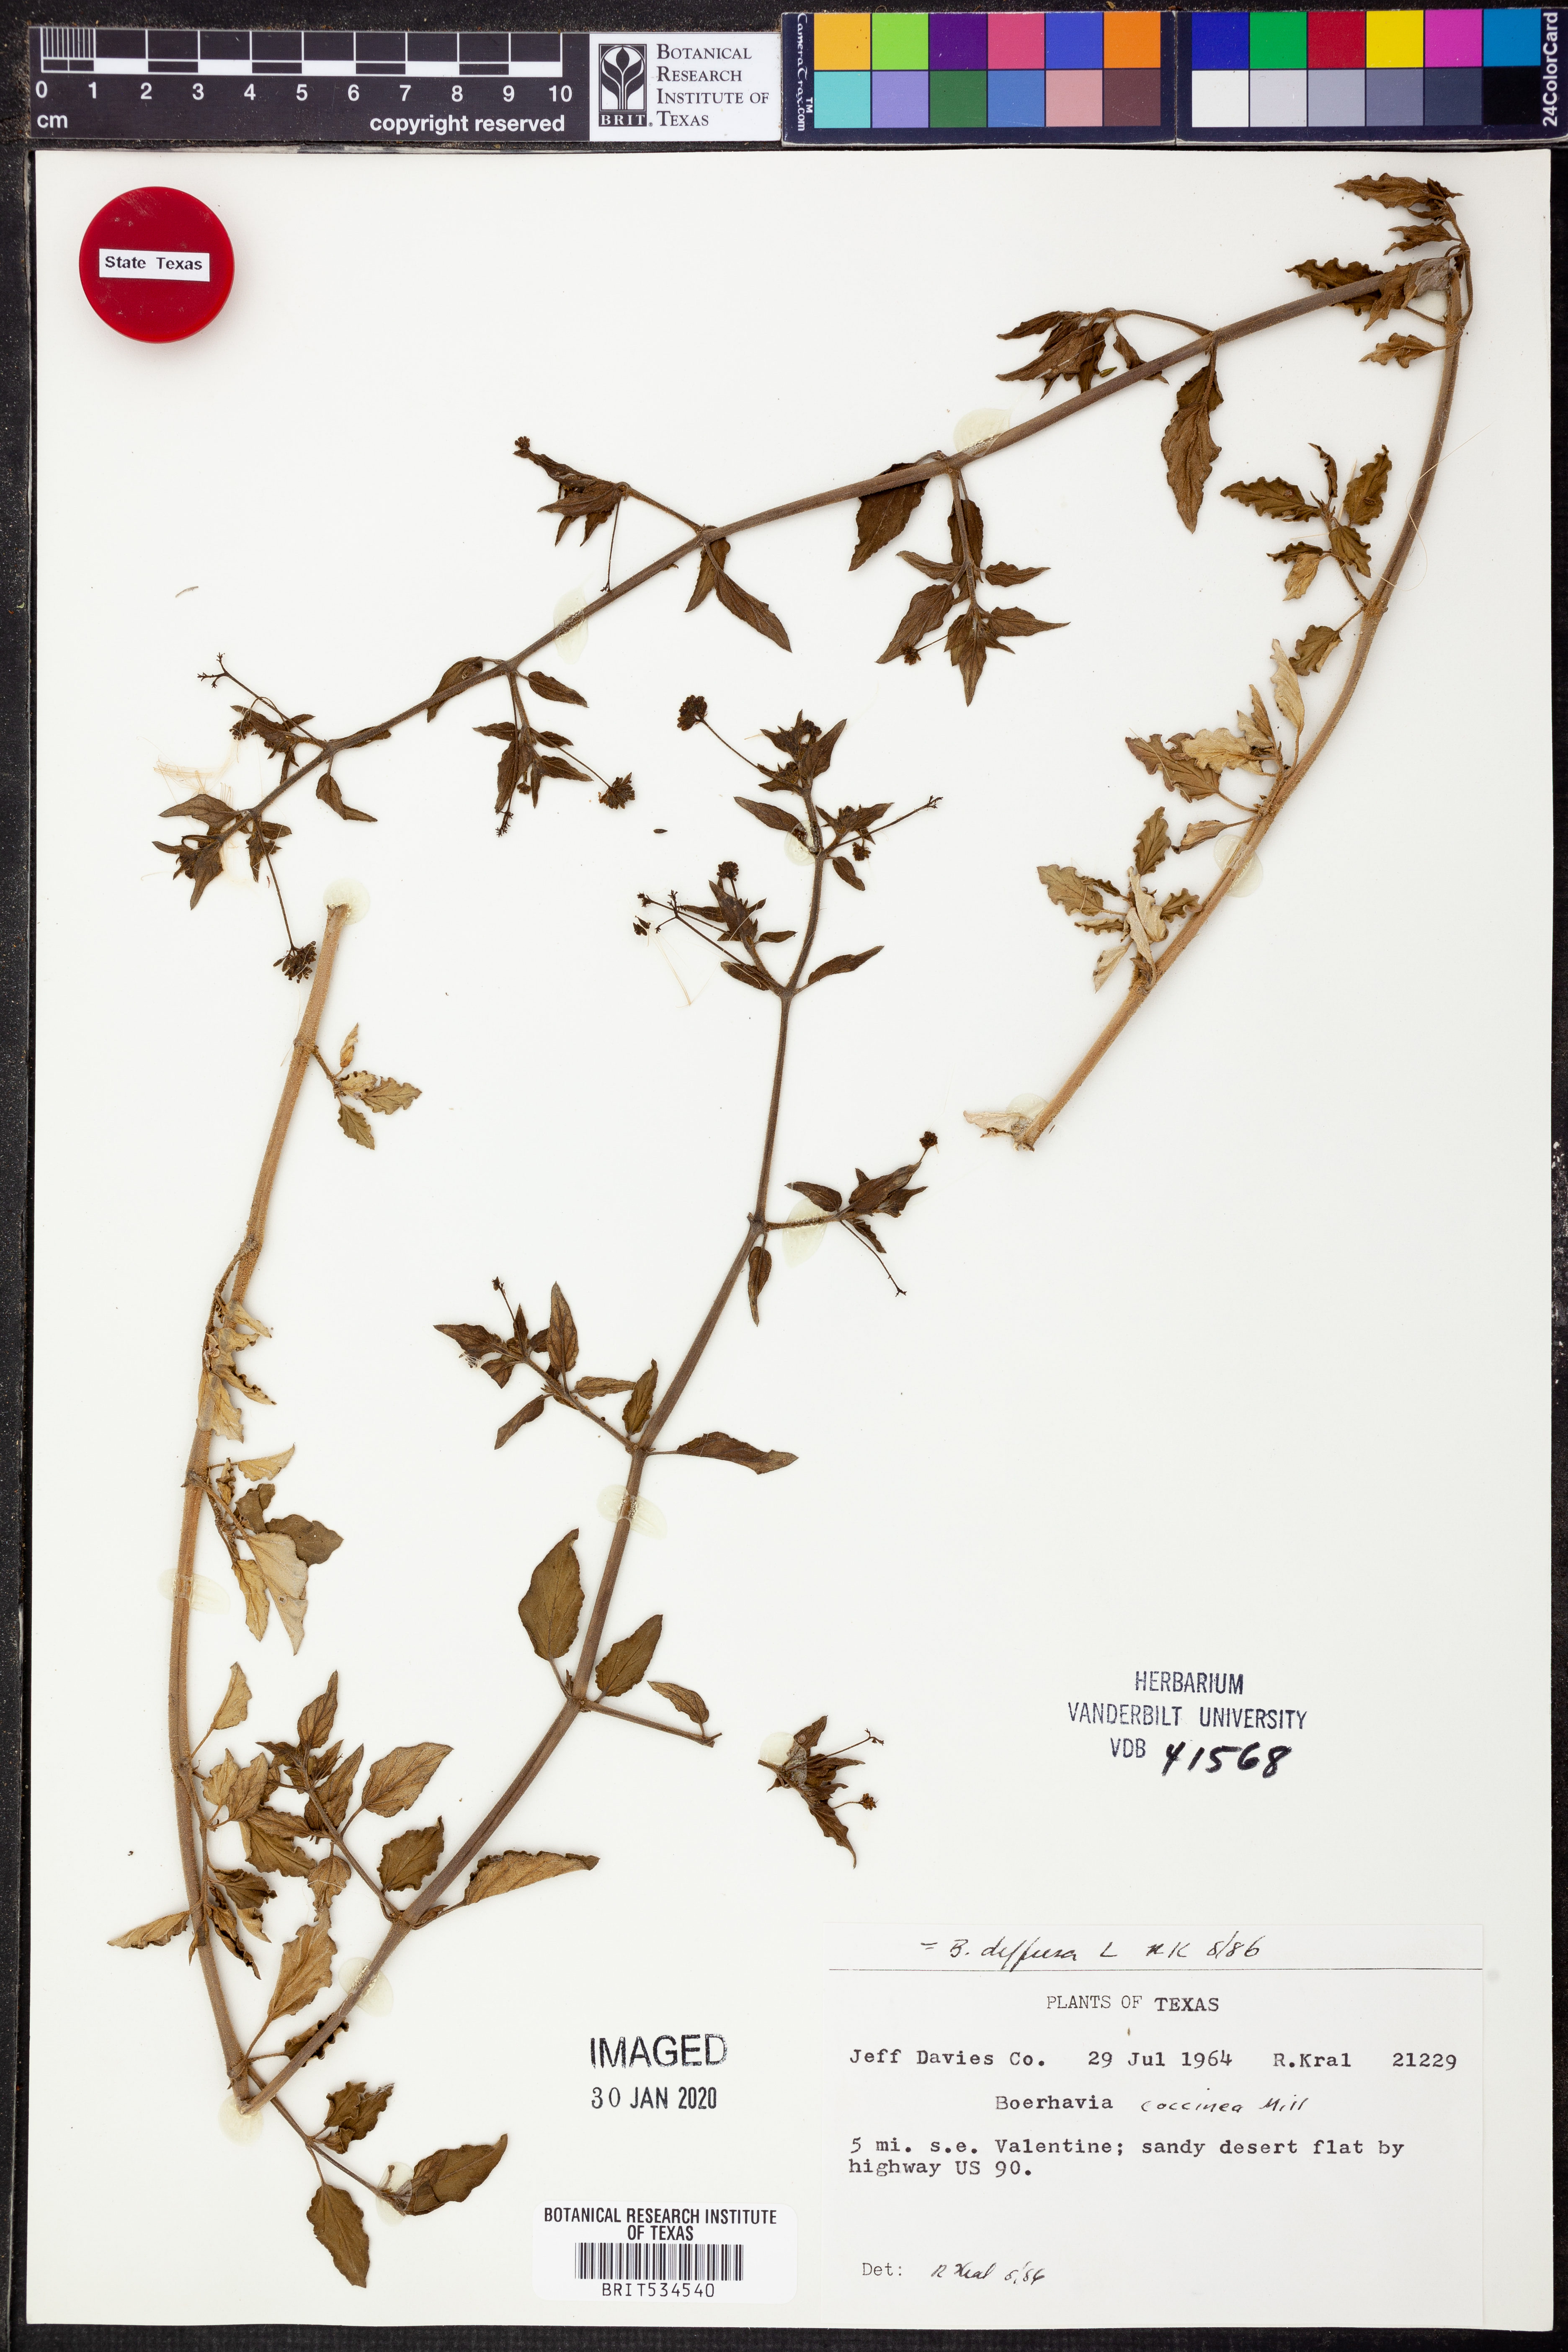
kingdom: Plantae
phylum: Tracheophyta
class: Magnoliopsida
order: Caryophyllales
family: Nyctaginaceae
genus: Boerhavia
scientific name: Boerhavia diffusa
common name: Red spiderling
